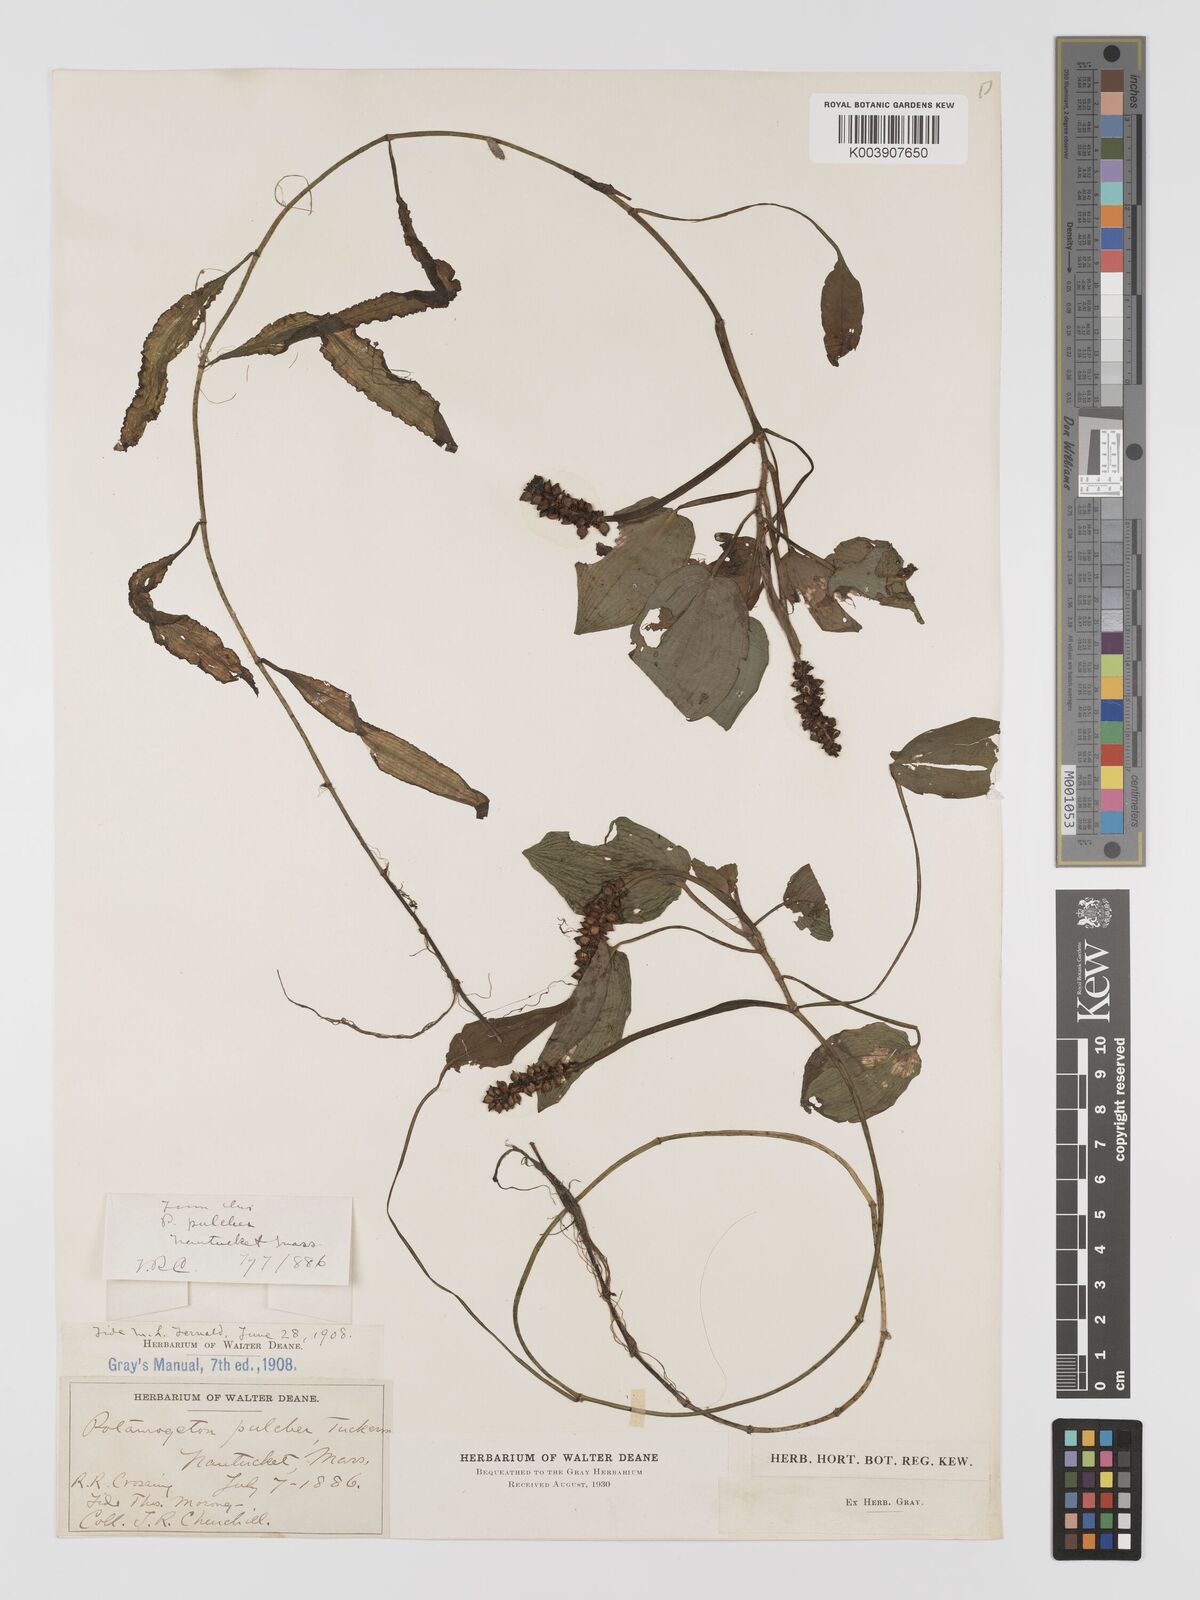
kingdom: Plantae
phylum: Tracheophyta
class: Liliopsida
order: Alismatales
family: Potamogetonaceae
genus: Potamogeton
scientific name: Potamogeton pulcher
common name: Heart-leaved pondweed
